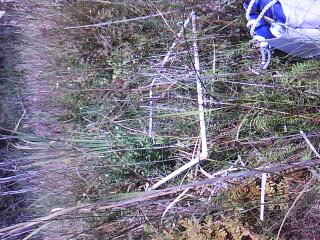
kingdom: Plantae
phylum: Tracheophyta
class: Liliopsida
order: Poales
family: Cyperaceae
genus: Schoenoplectus
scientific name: Schoenoplectus tabernaemontani
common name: Grey club-rush
